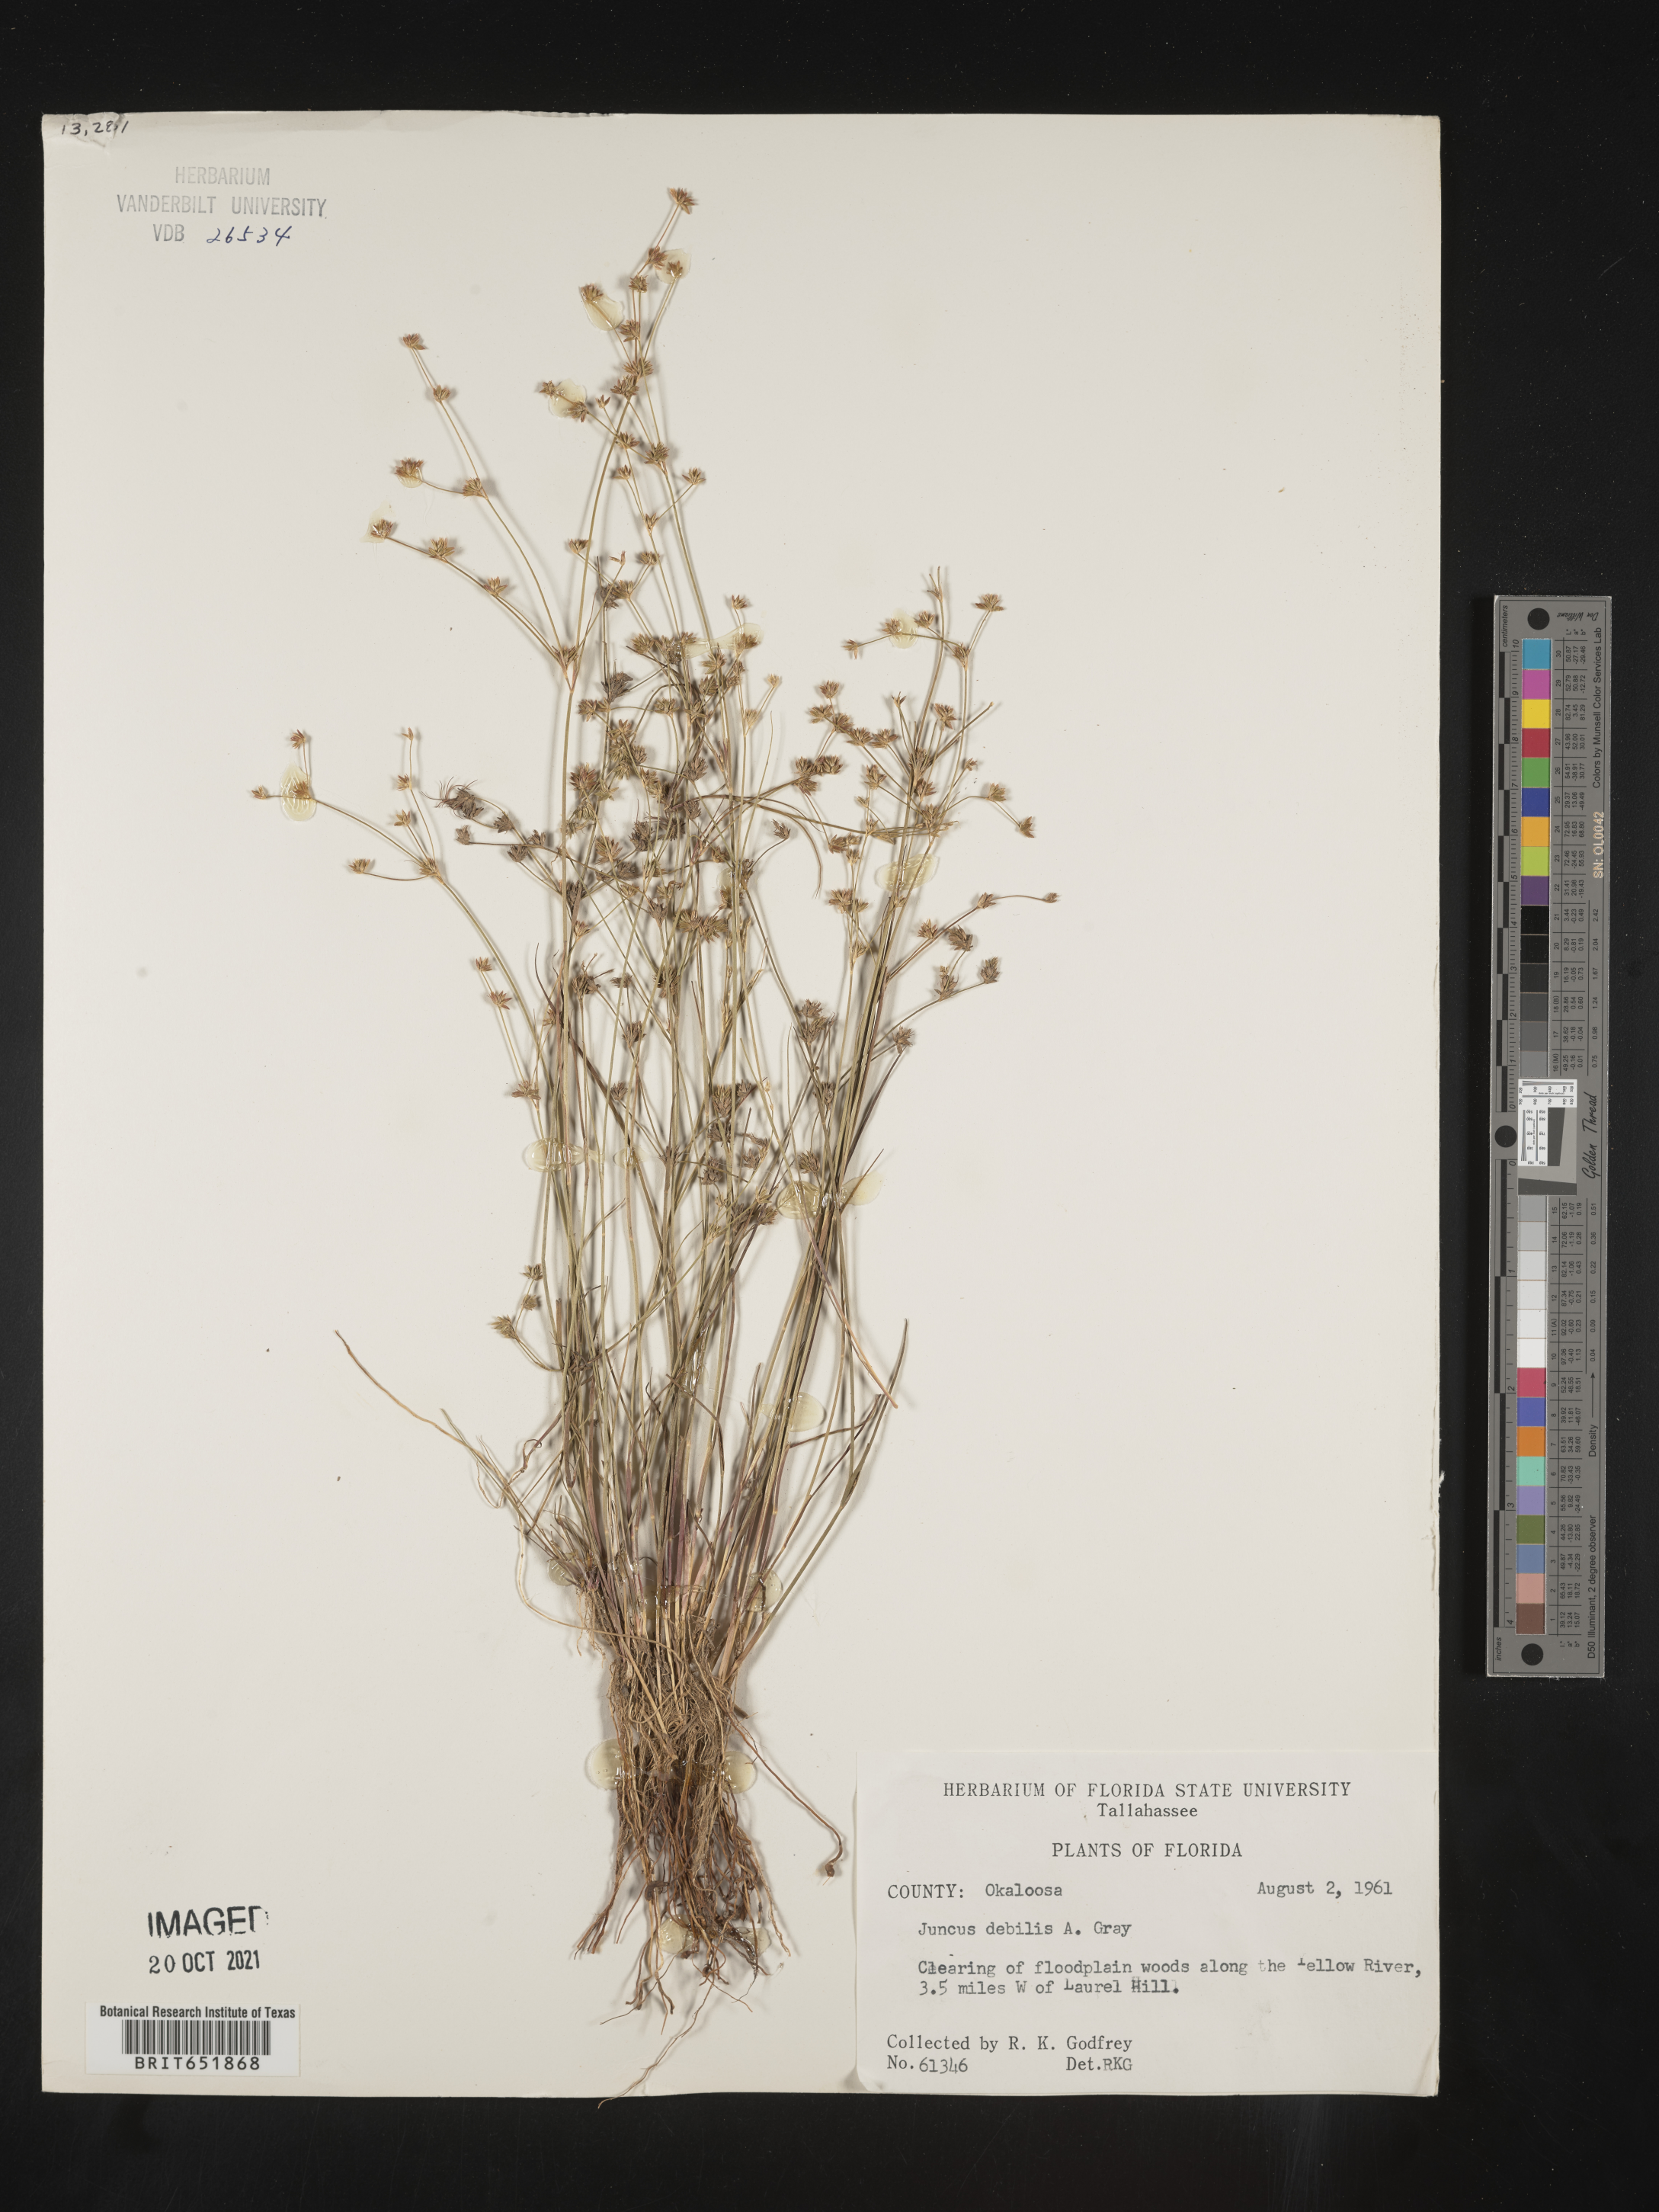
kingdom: Plantae
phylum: Tracheophyta
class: Liliopsida
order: Poales
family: Juncaceae
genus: Juncus
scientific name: Juncus debilis
